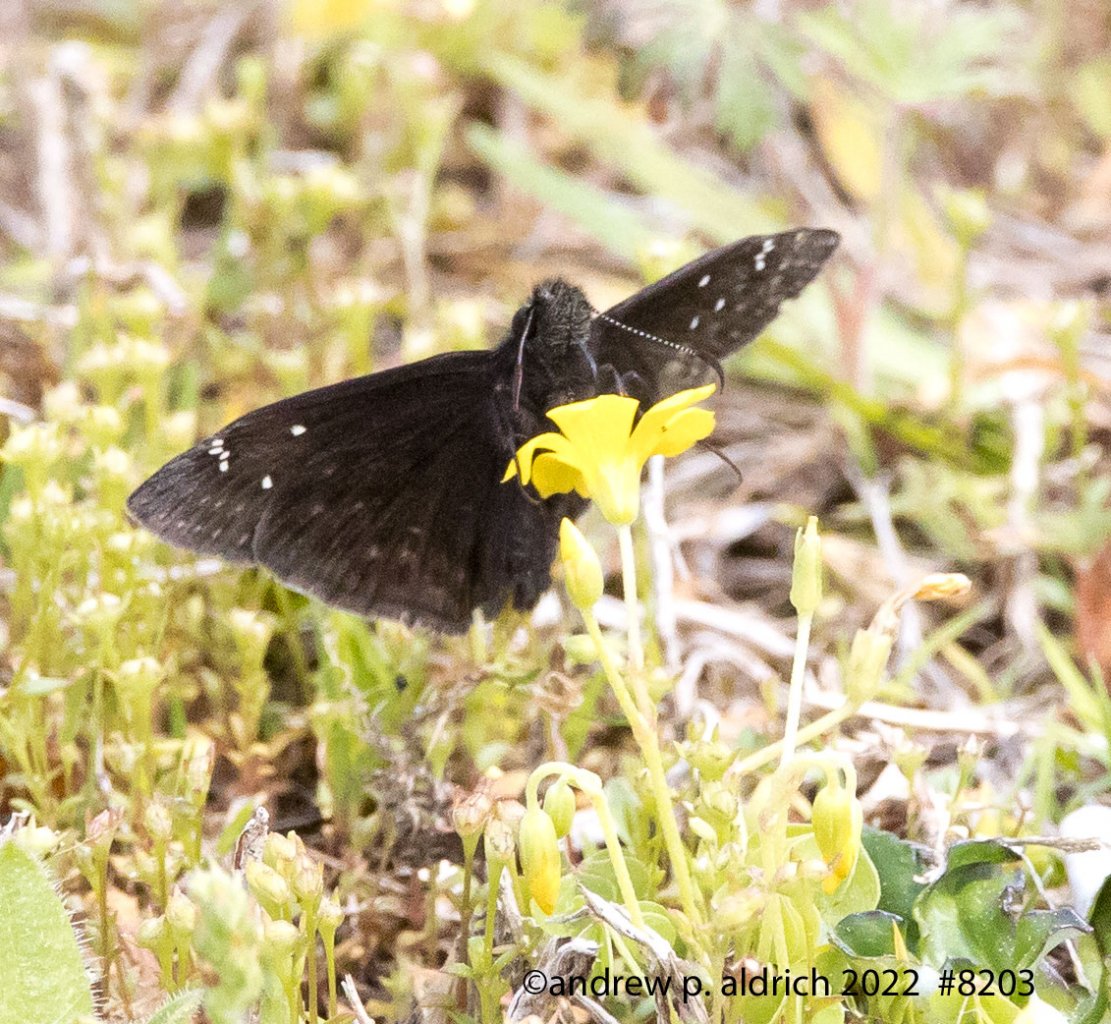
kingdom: Animalia
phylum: Arthropoda
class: Insecta
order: Lepidoptera
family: Hesperiidae
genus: Gesta
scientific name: Gesta
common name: Juvenal's Duskywing
